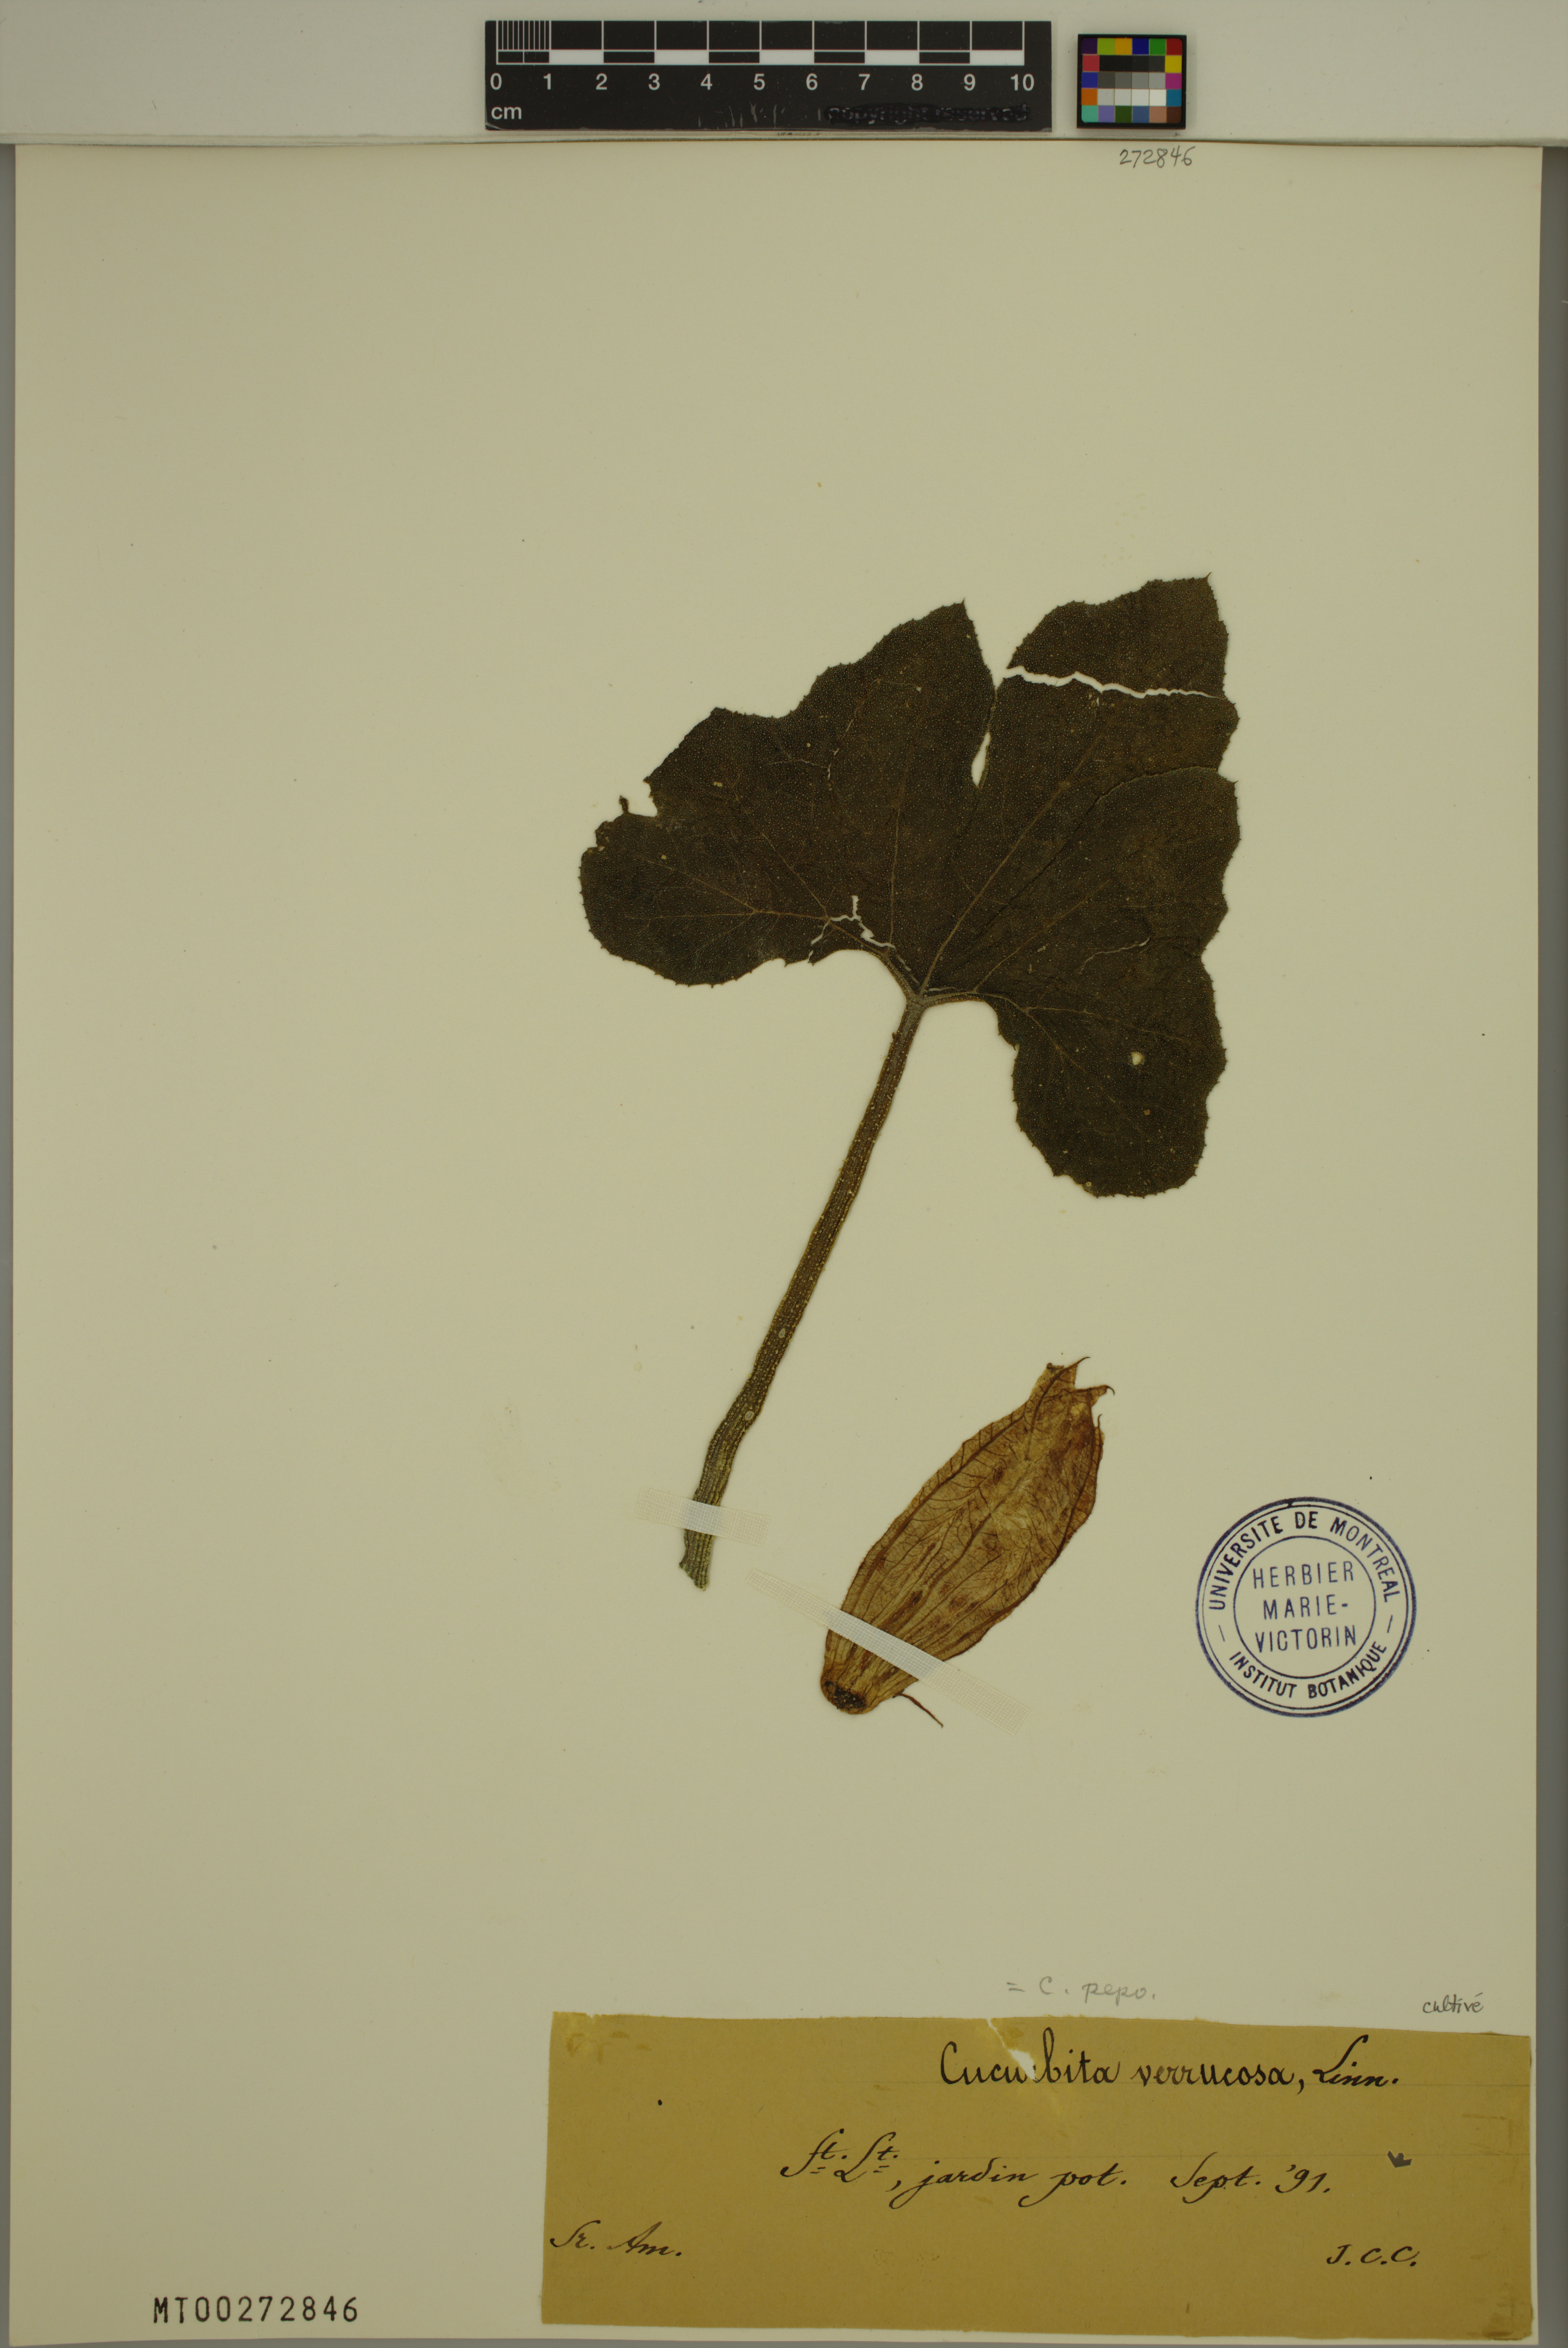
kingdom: Plantae
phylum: Tracheophyta
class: Magnoliopsida
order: Cucurbitales
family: Cucurbitaceae
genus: Cucurbita
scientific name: Cucurbita melopepo
